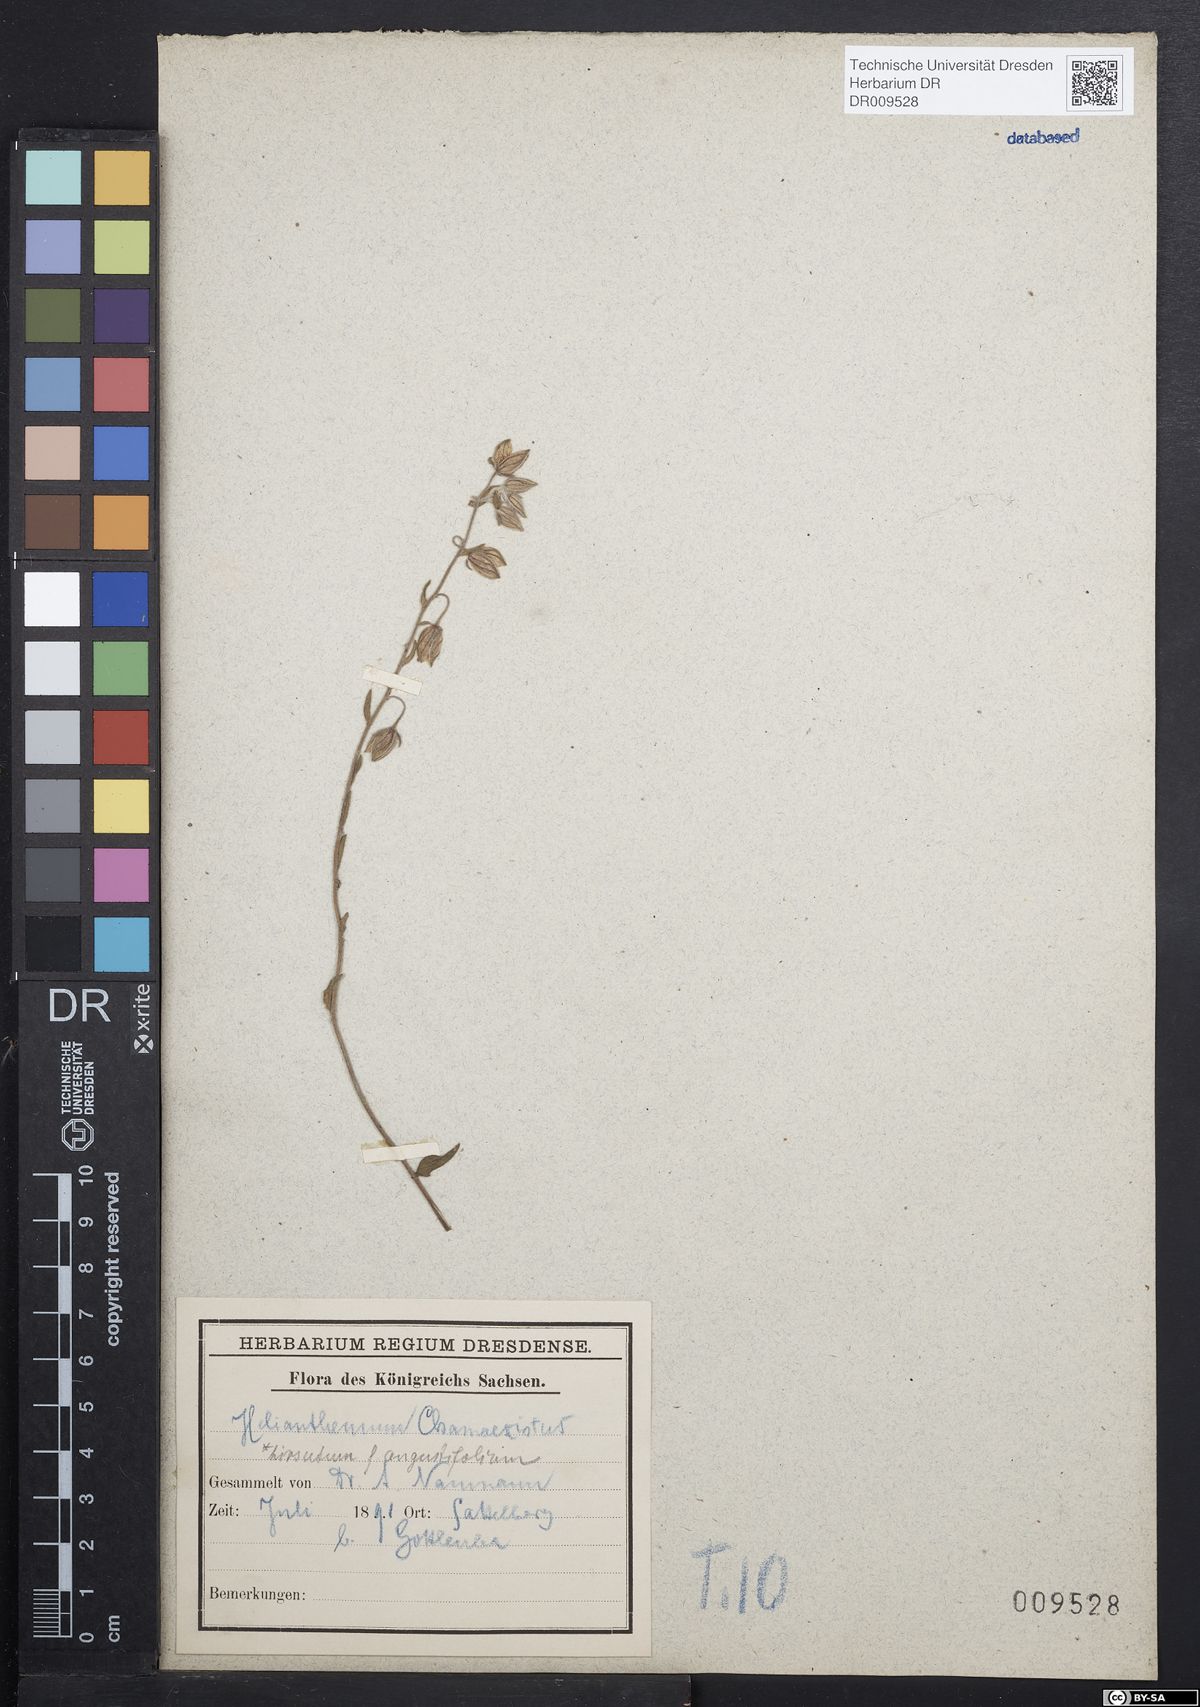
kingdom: Plantae
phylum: Tracheophyta
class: Magnoliopsida
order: Malvales
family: Cistaceae
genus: Helianthemum
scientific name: Helianthemum nummularium
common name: Common rock-rose
